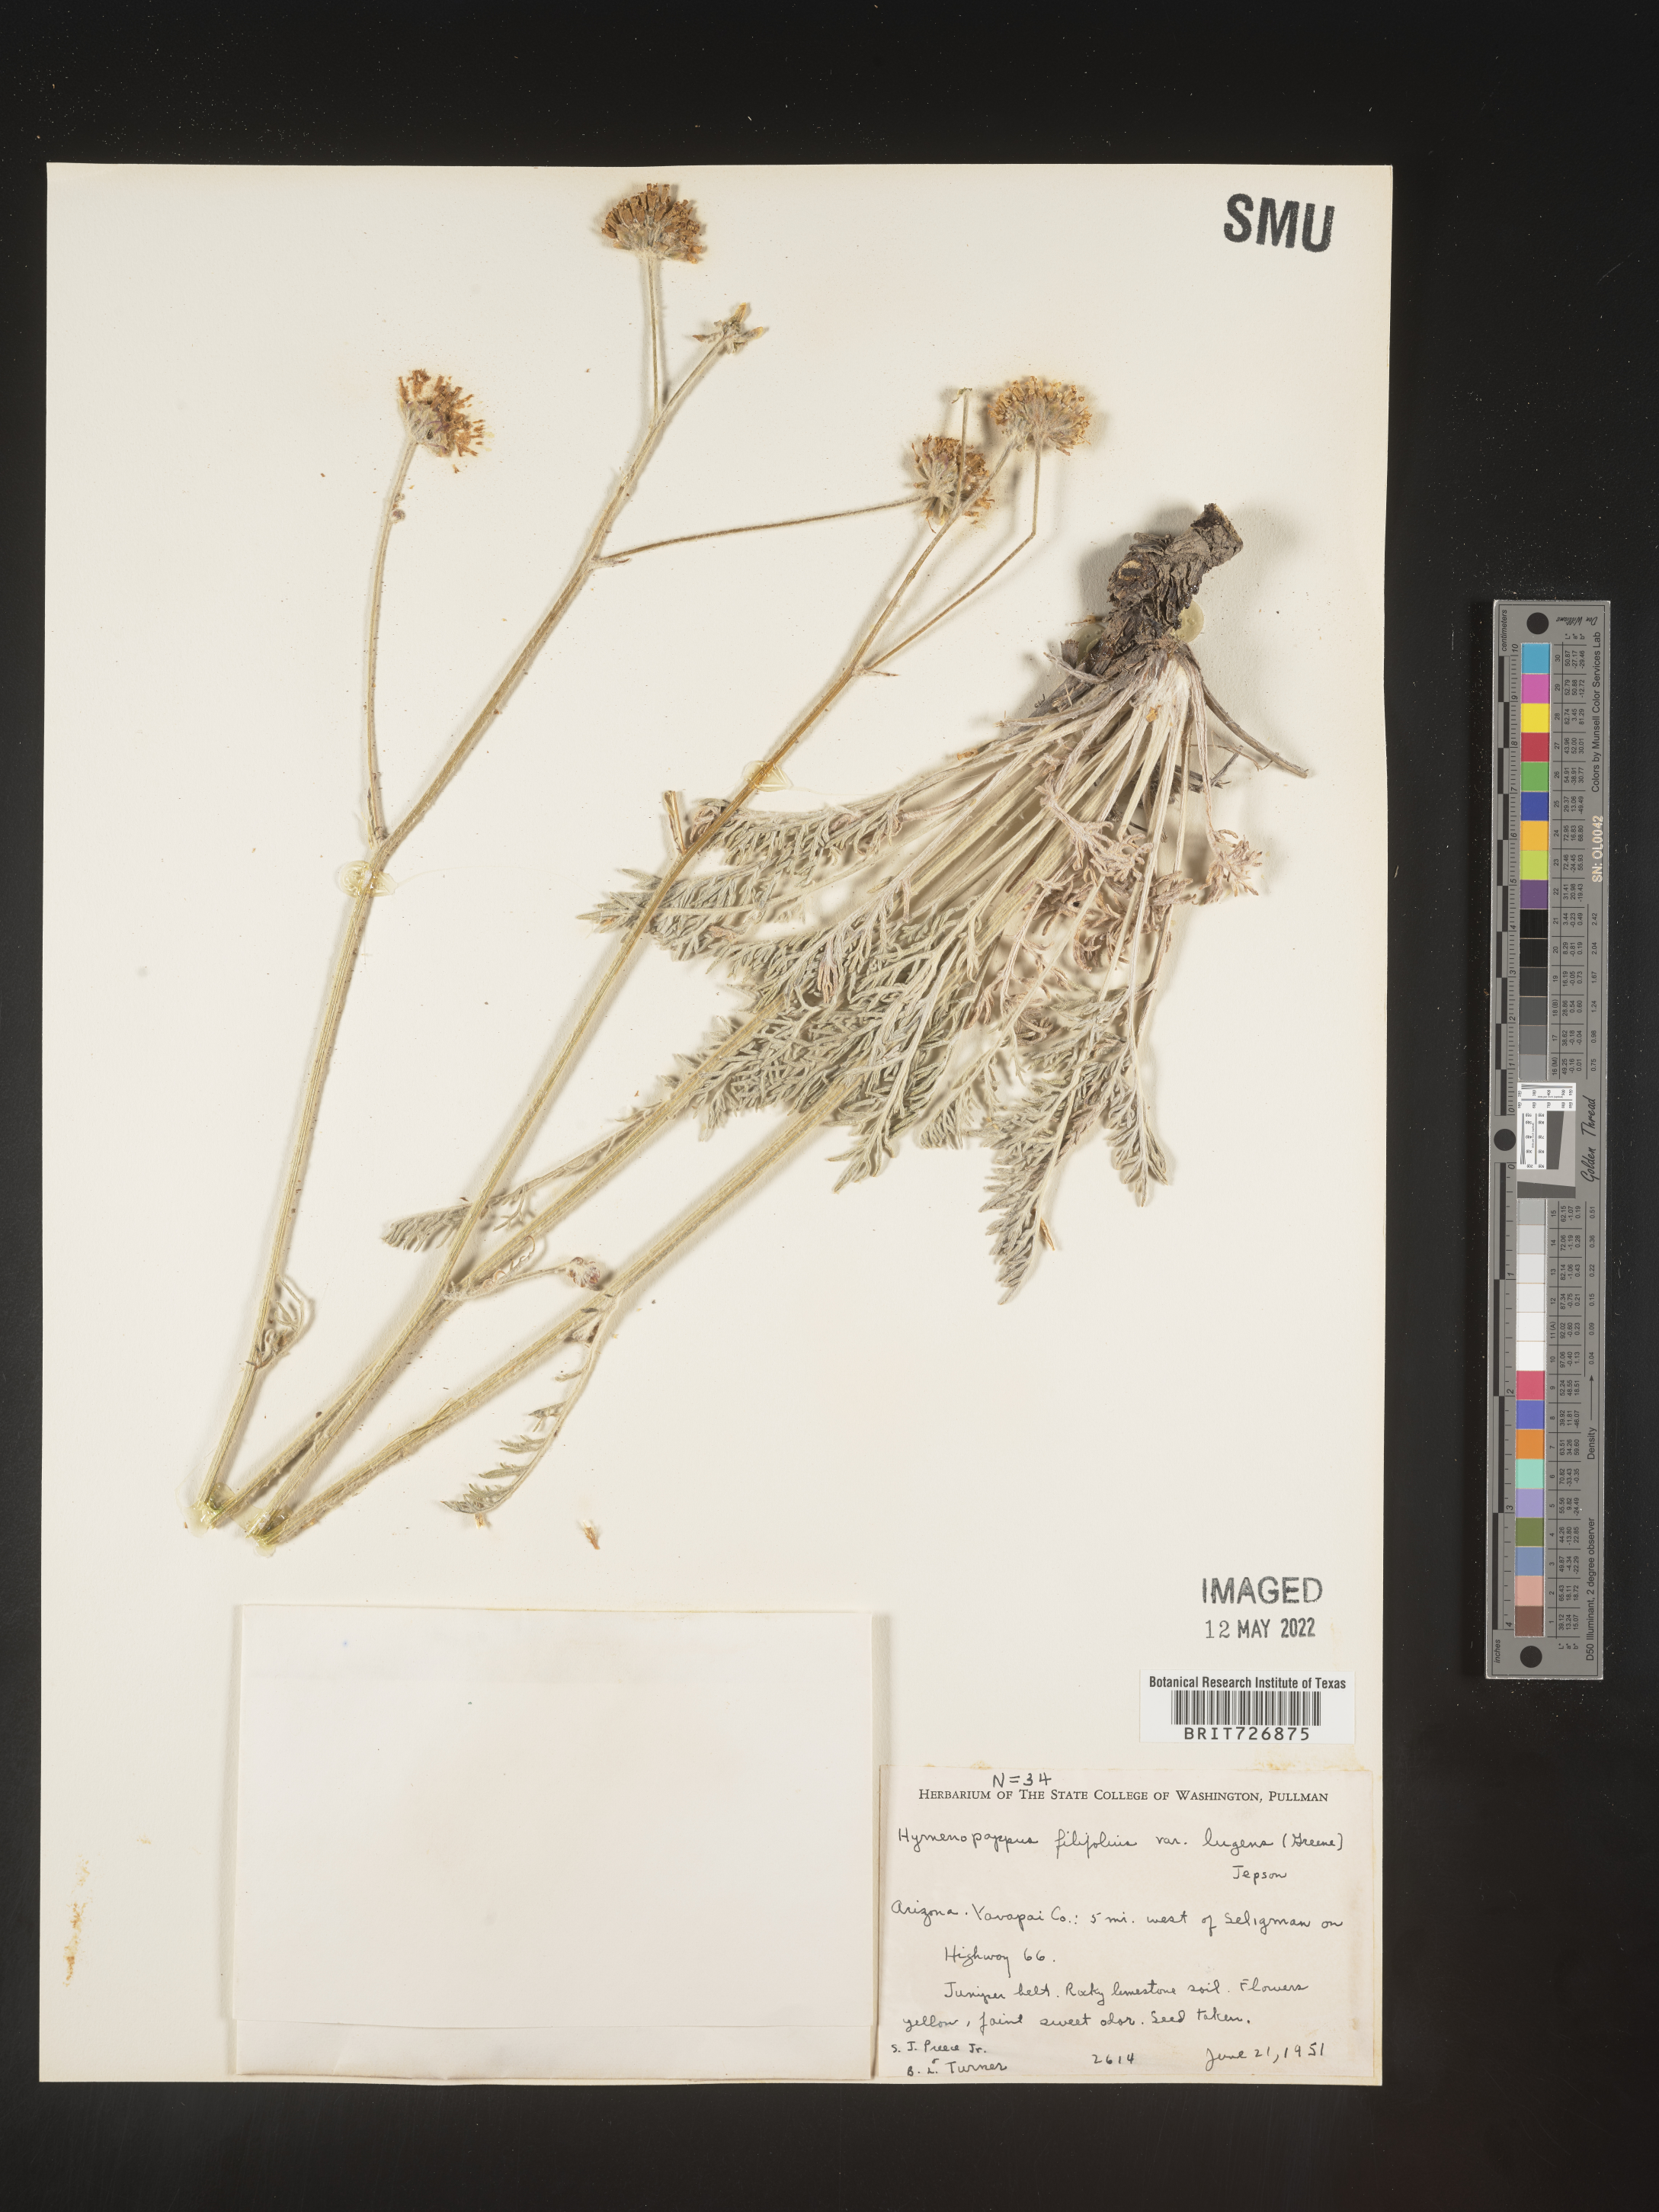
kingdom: Plantae
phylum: Tracheophyta
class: Magnoliopsida
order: Asterales
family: Asteraceae
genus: Hymenopappus
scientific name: Hymenopappus filifolius
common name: Columbia cutleaf
